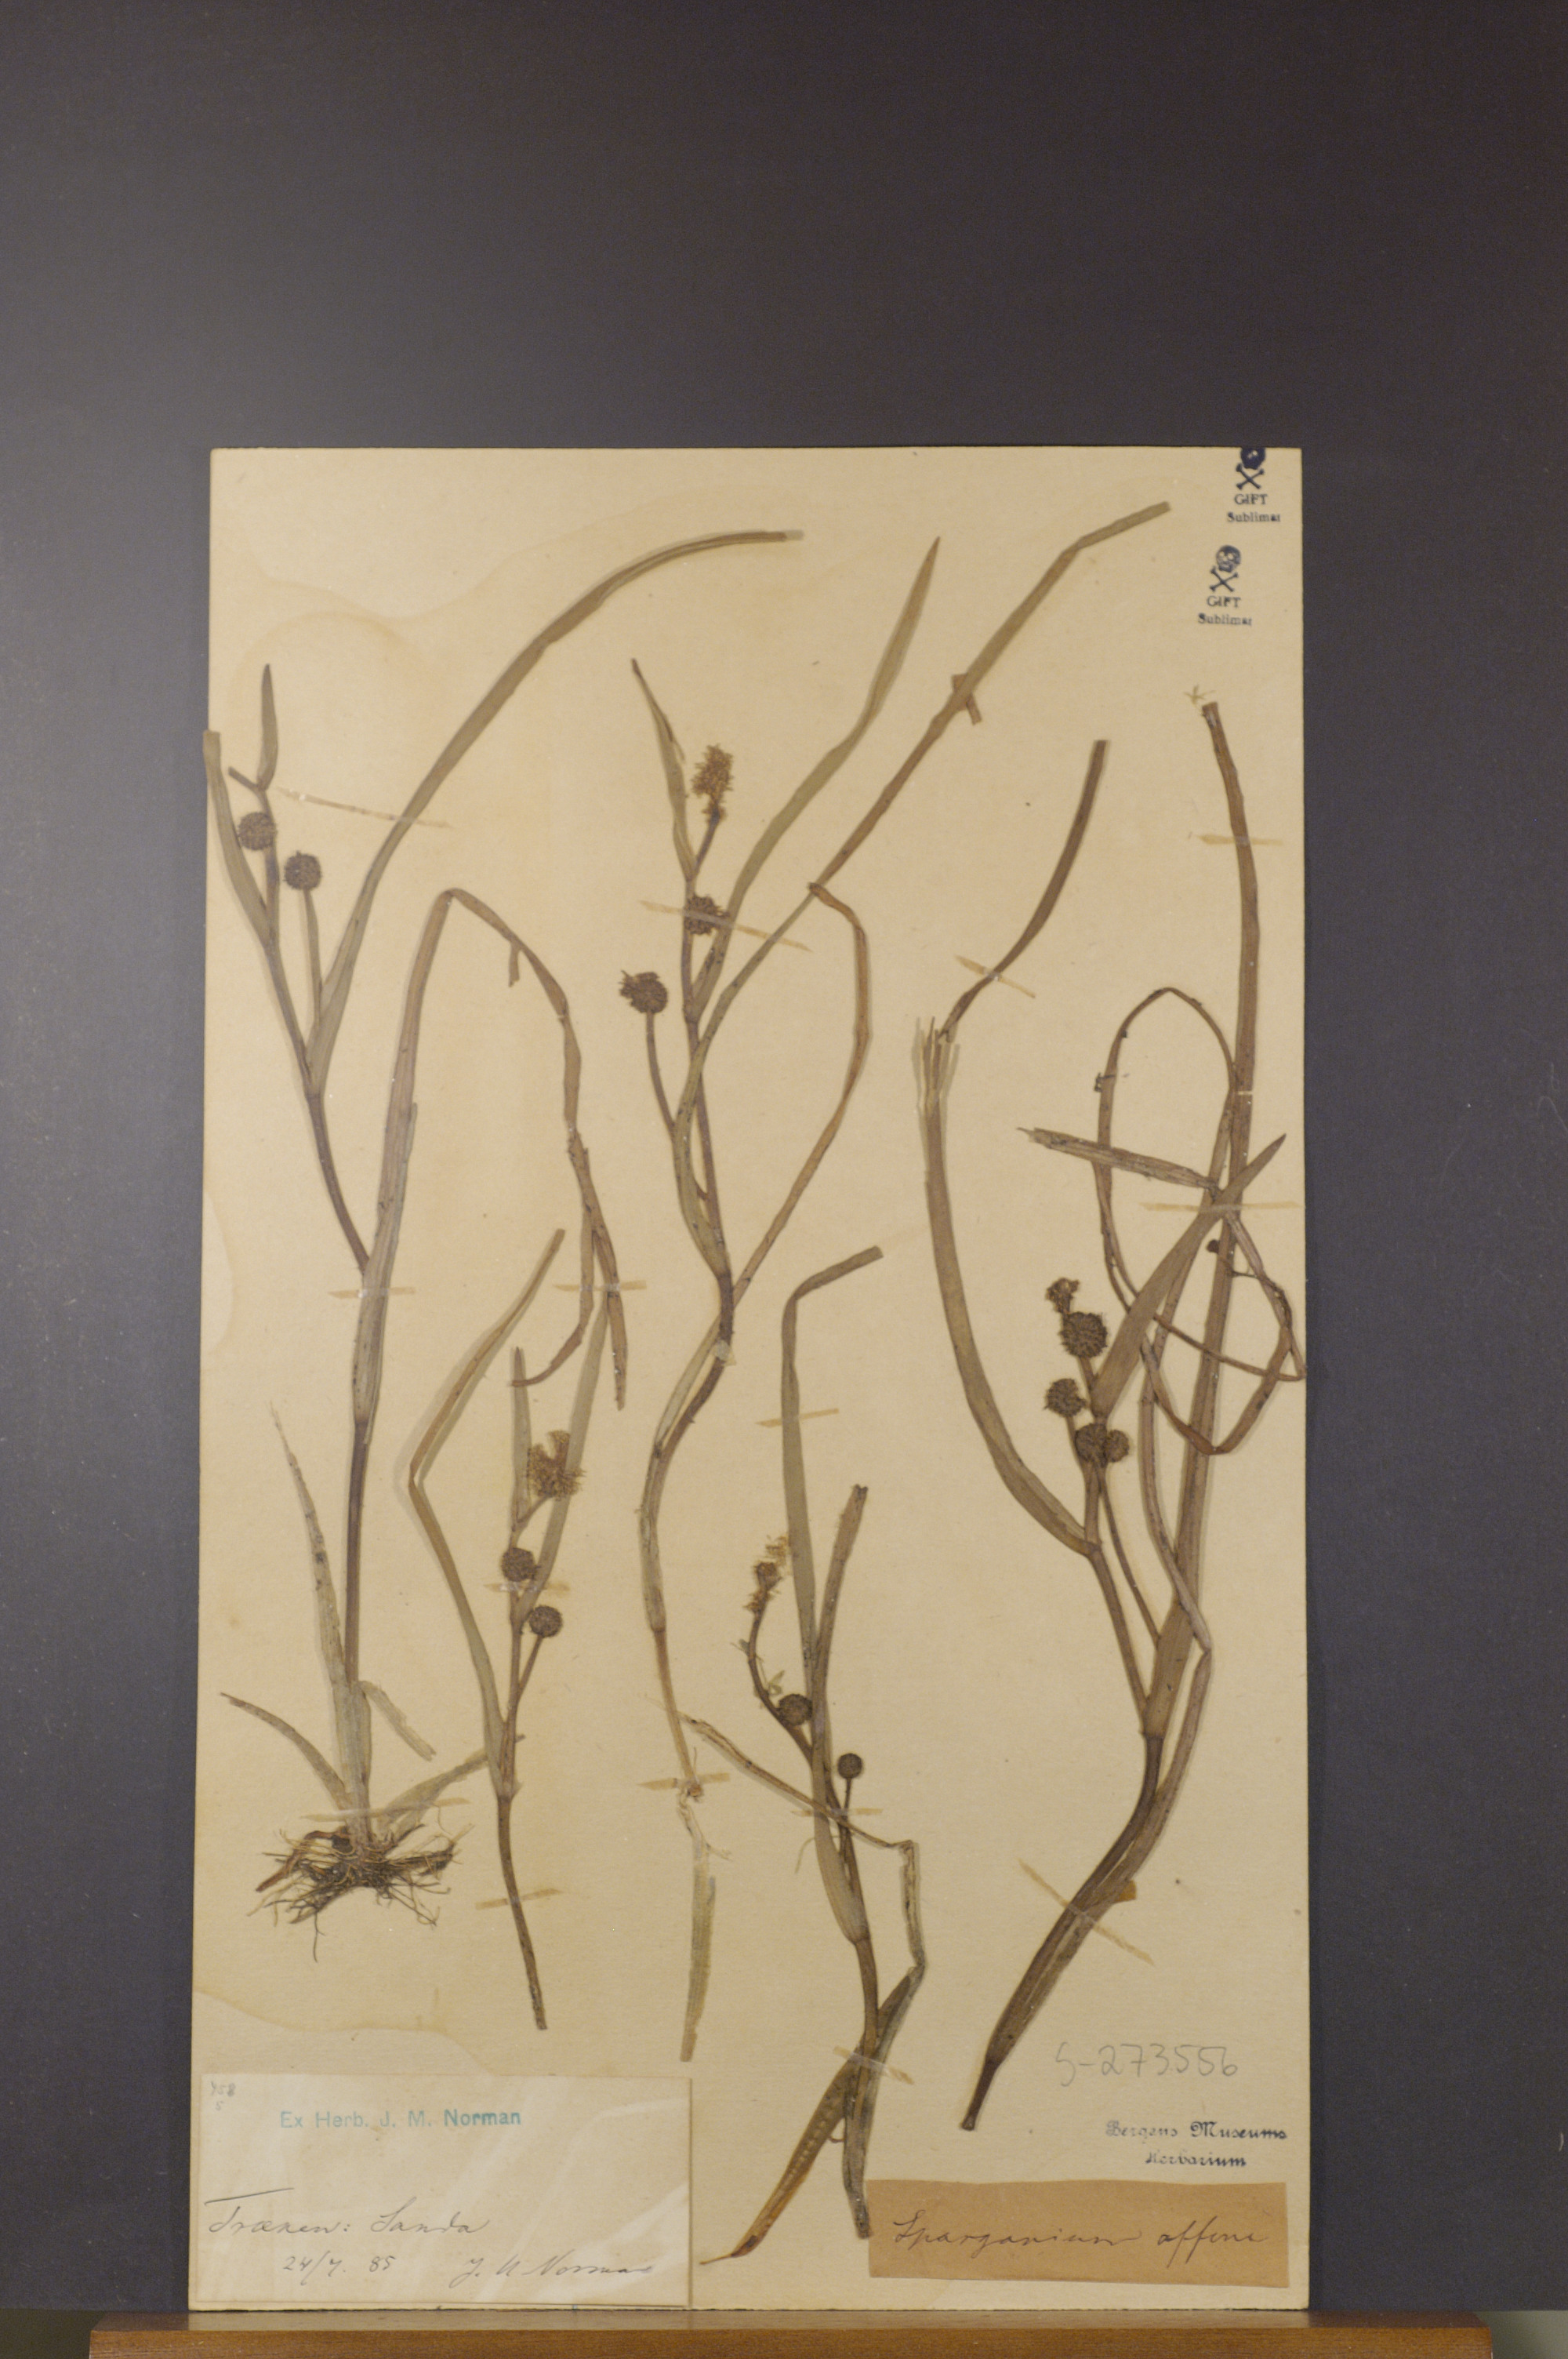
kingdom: Plantae
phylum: Tracheophyta
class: Liliopsida
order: Poales
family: Typhaceae
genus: Sparganium
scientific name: Sparganium angustifolium
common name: Floating bur-reed
